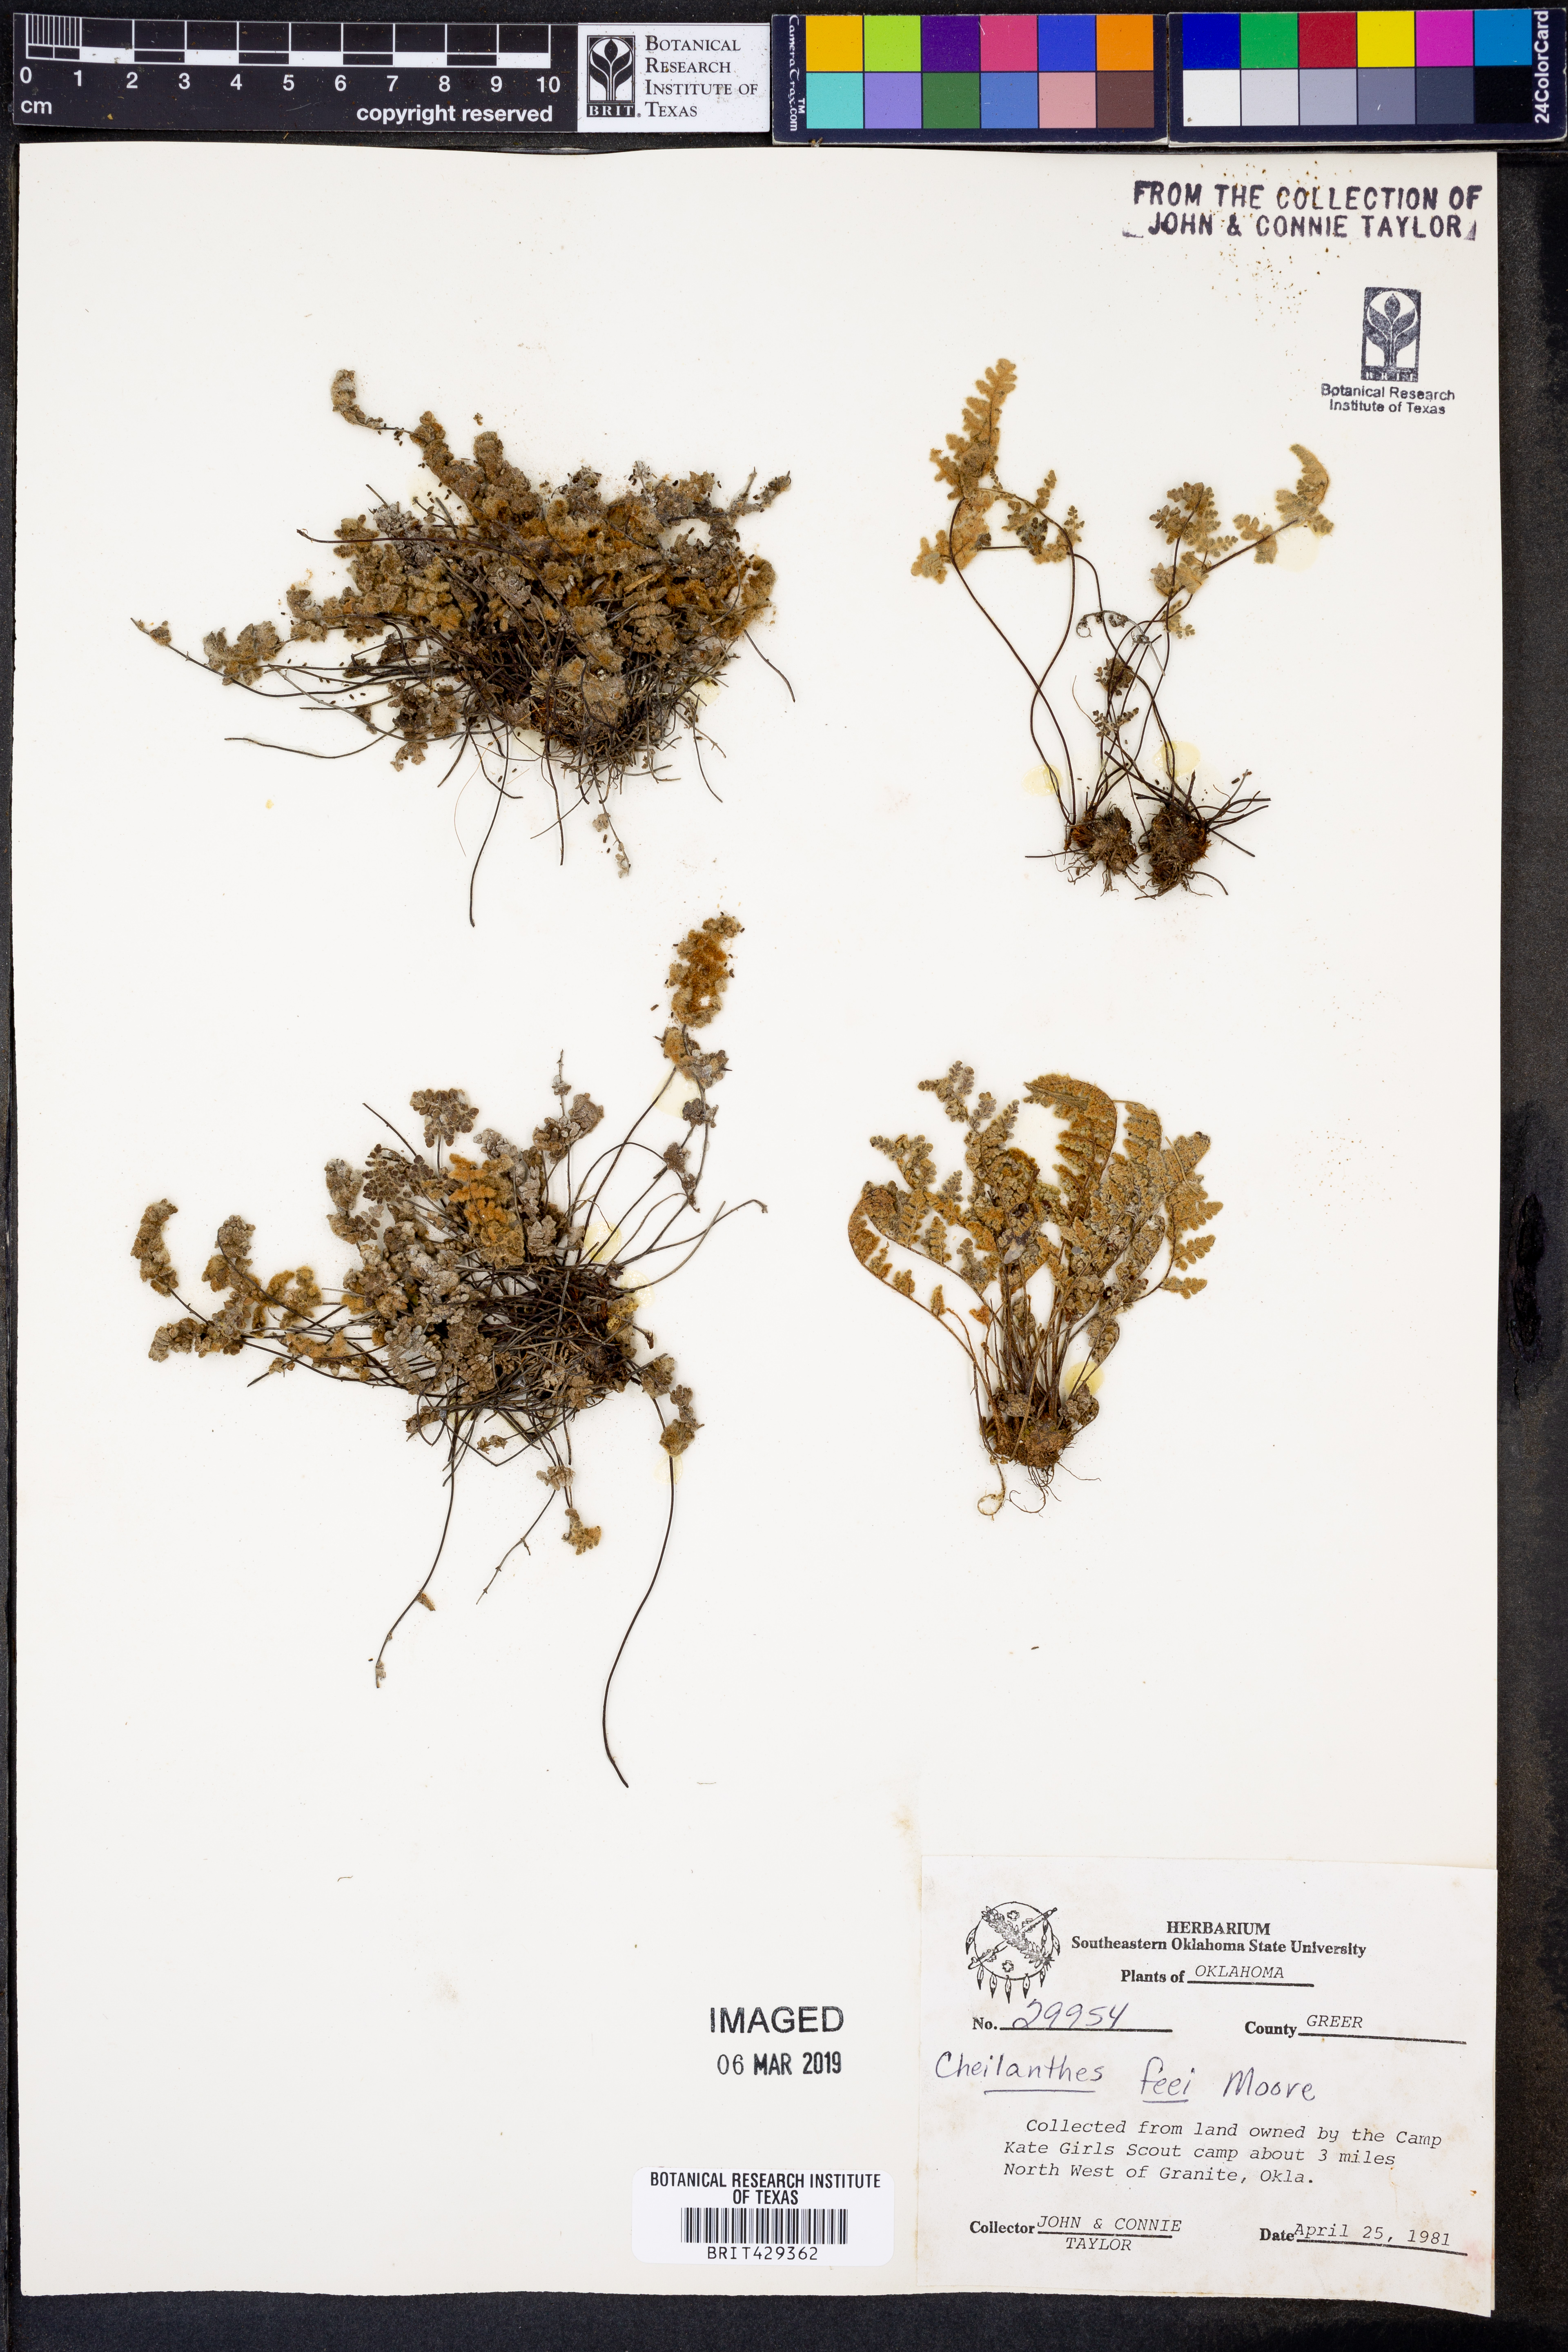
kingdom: Plantae
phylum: Tracheophyta
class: Polypodiopsida
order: Polypodiales
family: Pteridaceae
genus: Myriopteris
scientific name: Myriopteris gracilis
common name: Fee's lip fern
